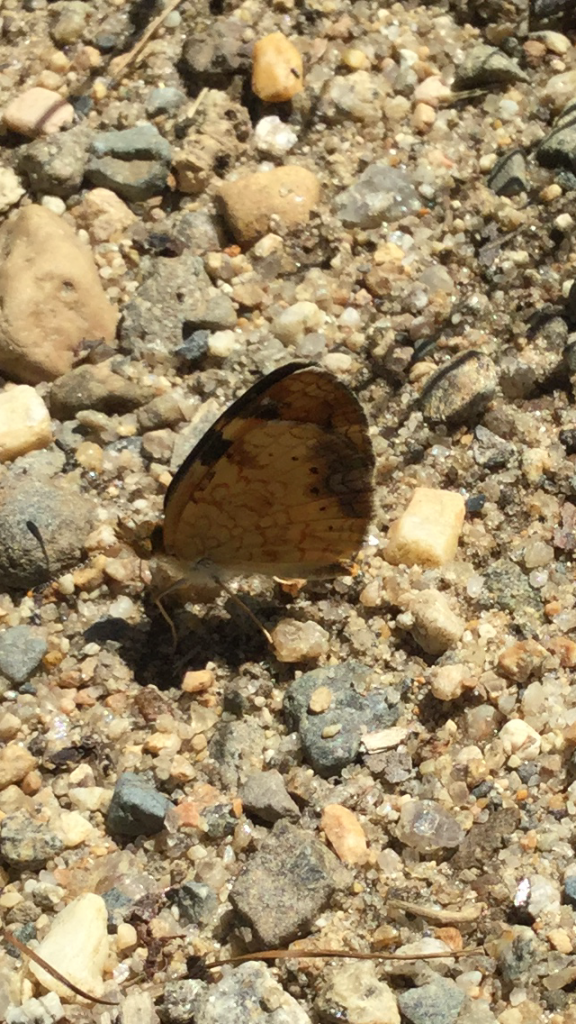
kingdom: Animalia
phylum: Arthropoda
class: Insecta
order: Lepidoptera
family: Nymphalidae
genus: Phyciodes
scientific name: Phyciodes
